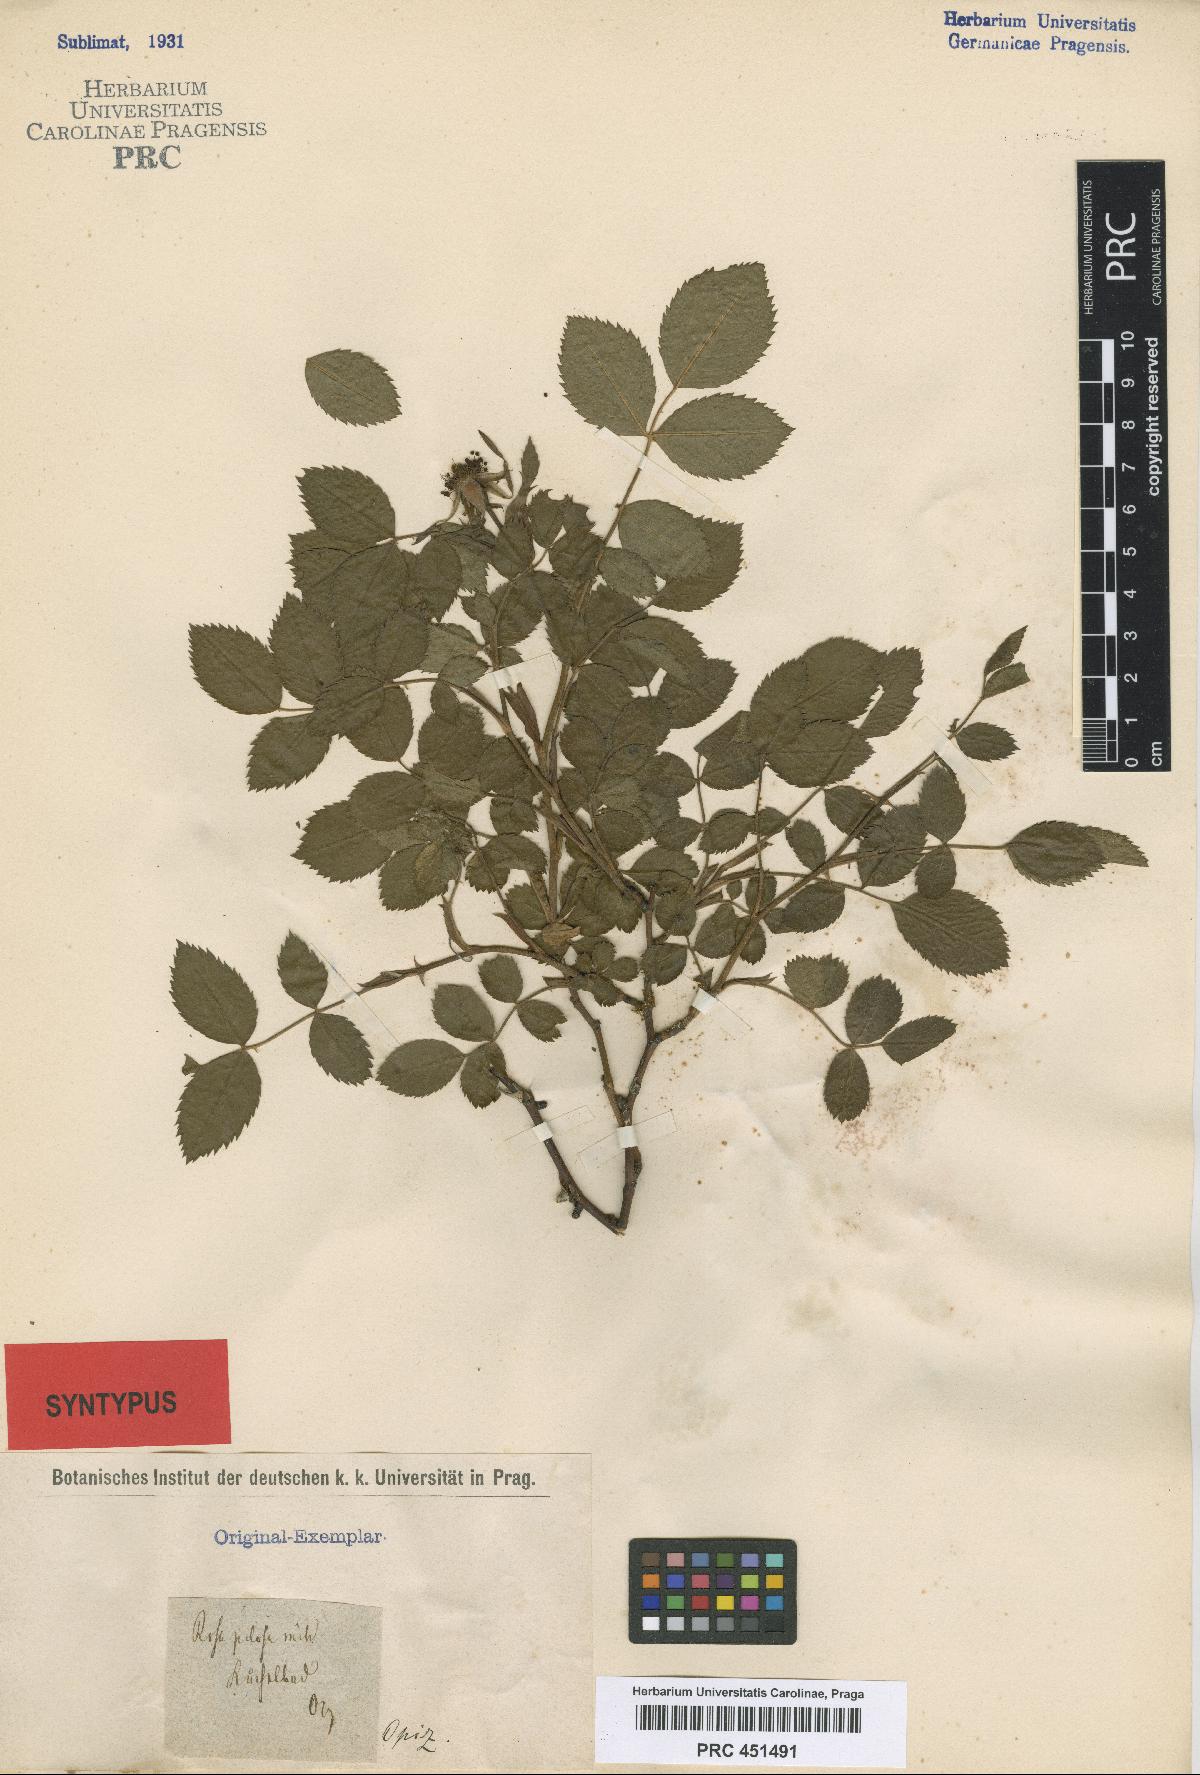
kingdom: Plantae
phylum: Tracheophyta
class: Magnoliopsida
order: Rosales
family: Rosaceae
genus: Rosa
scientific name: Rosa corymbifera
